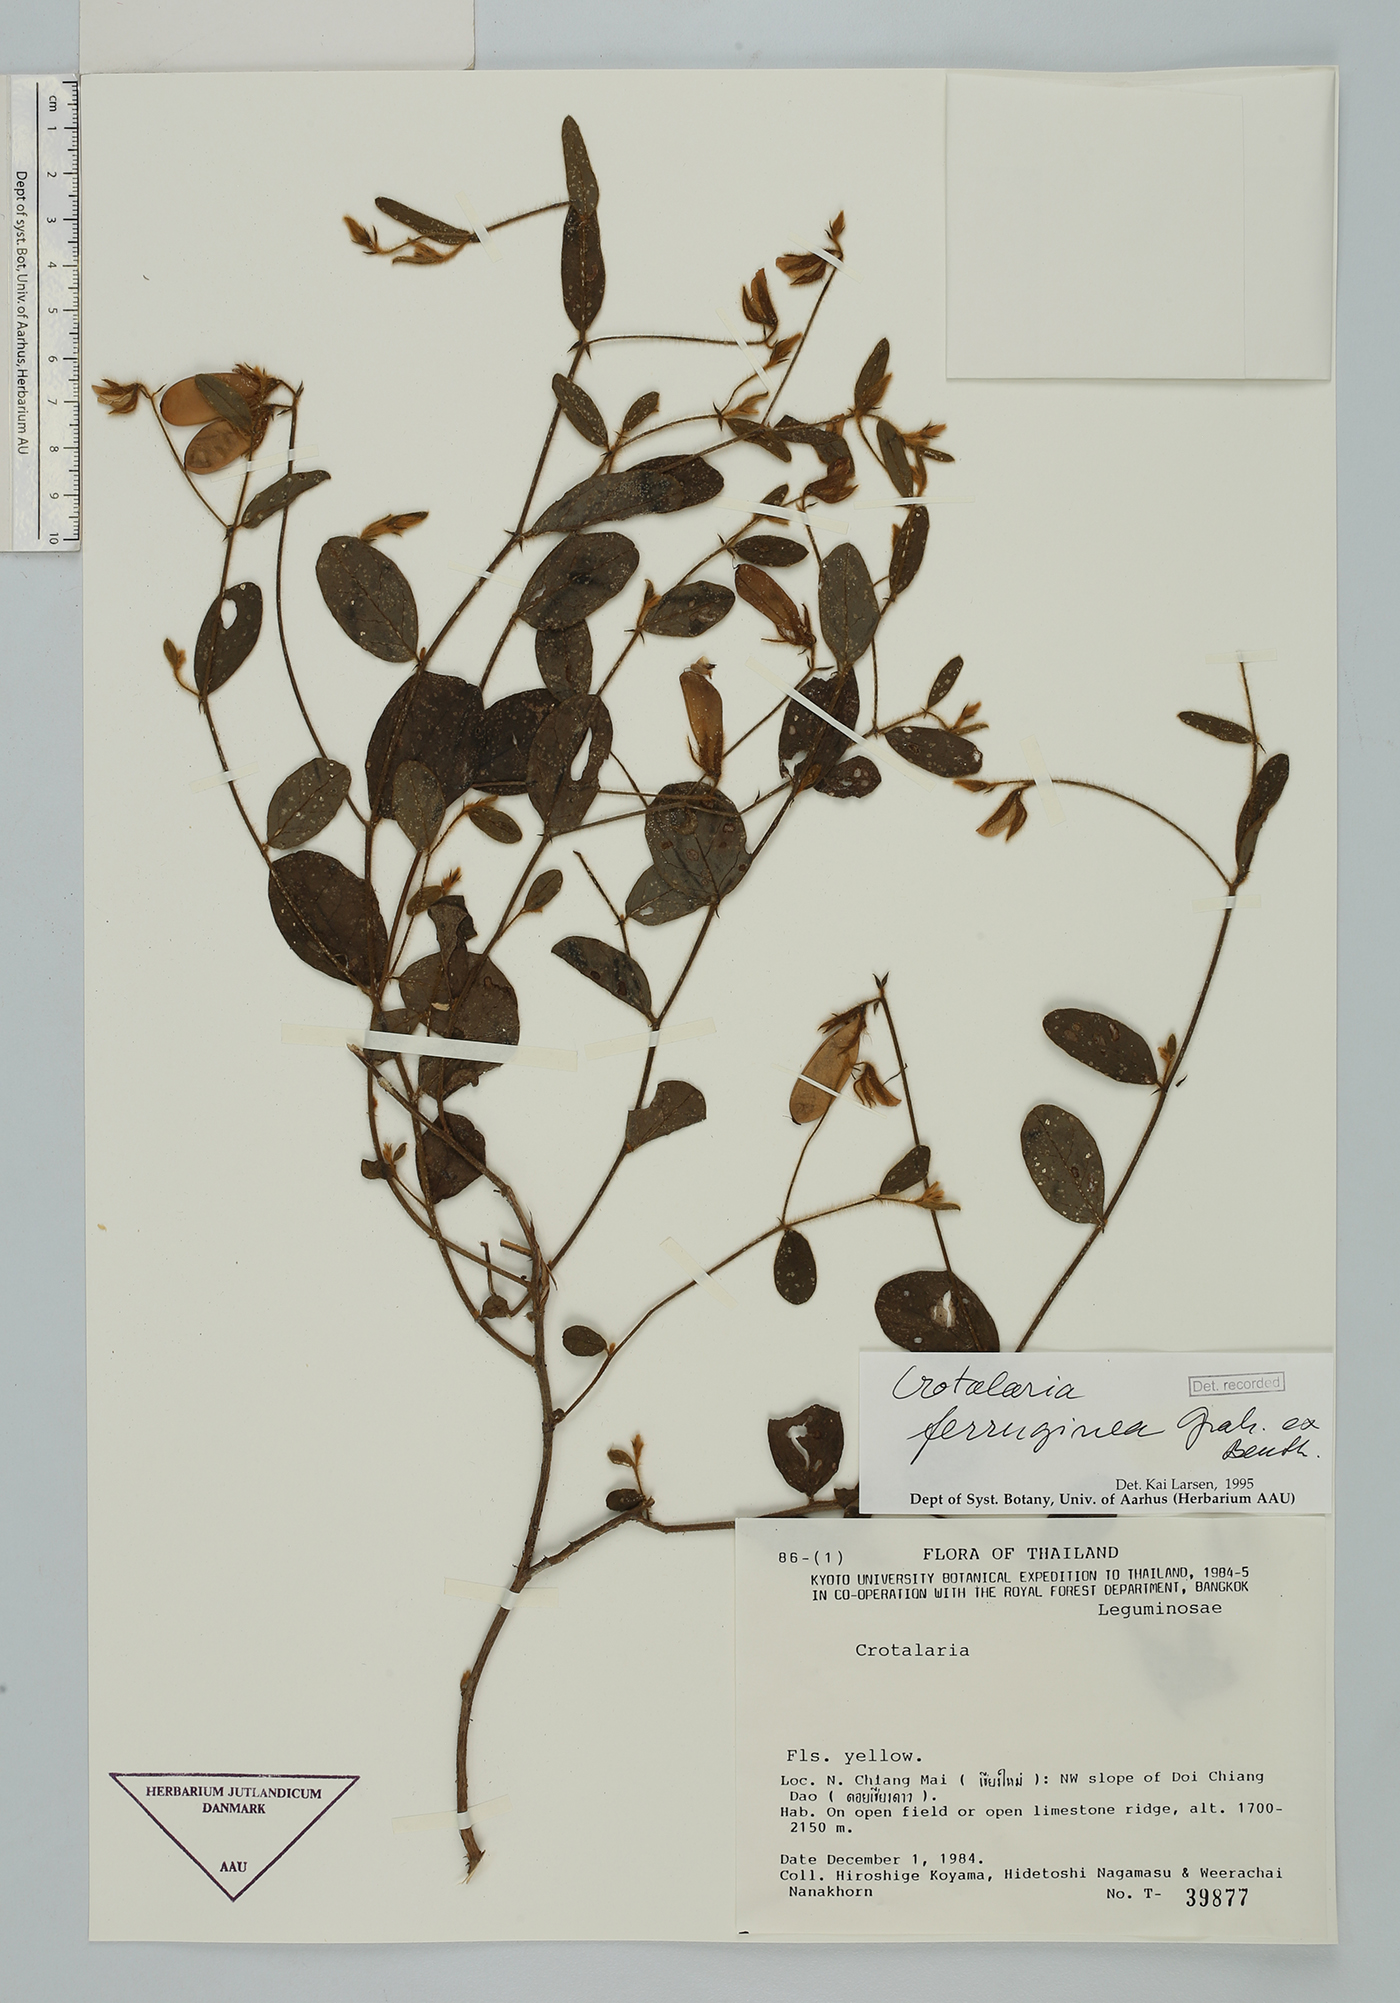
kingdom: Plantae
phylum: Tracheophyta
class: Magnoliopsida
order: Fabales
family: Fabaceae
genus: Crotalaria
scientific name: Crotalaria lejoloba
